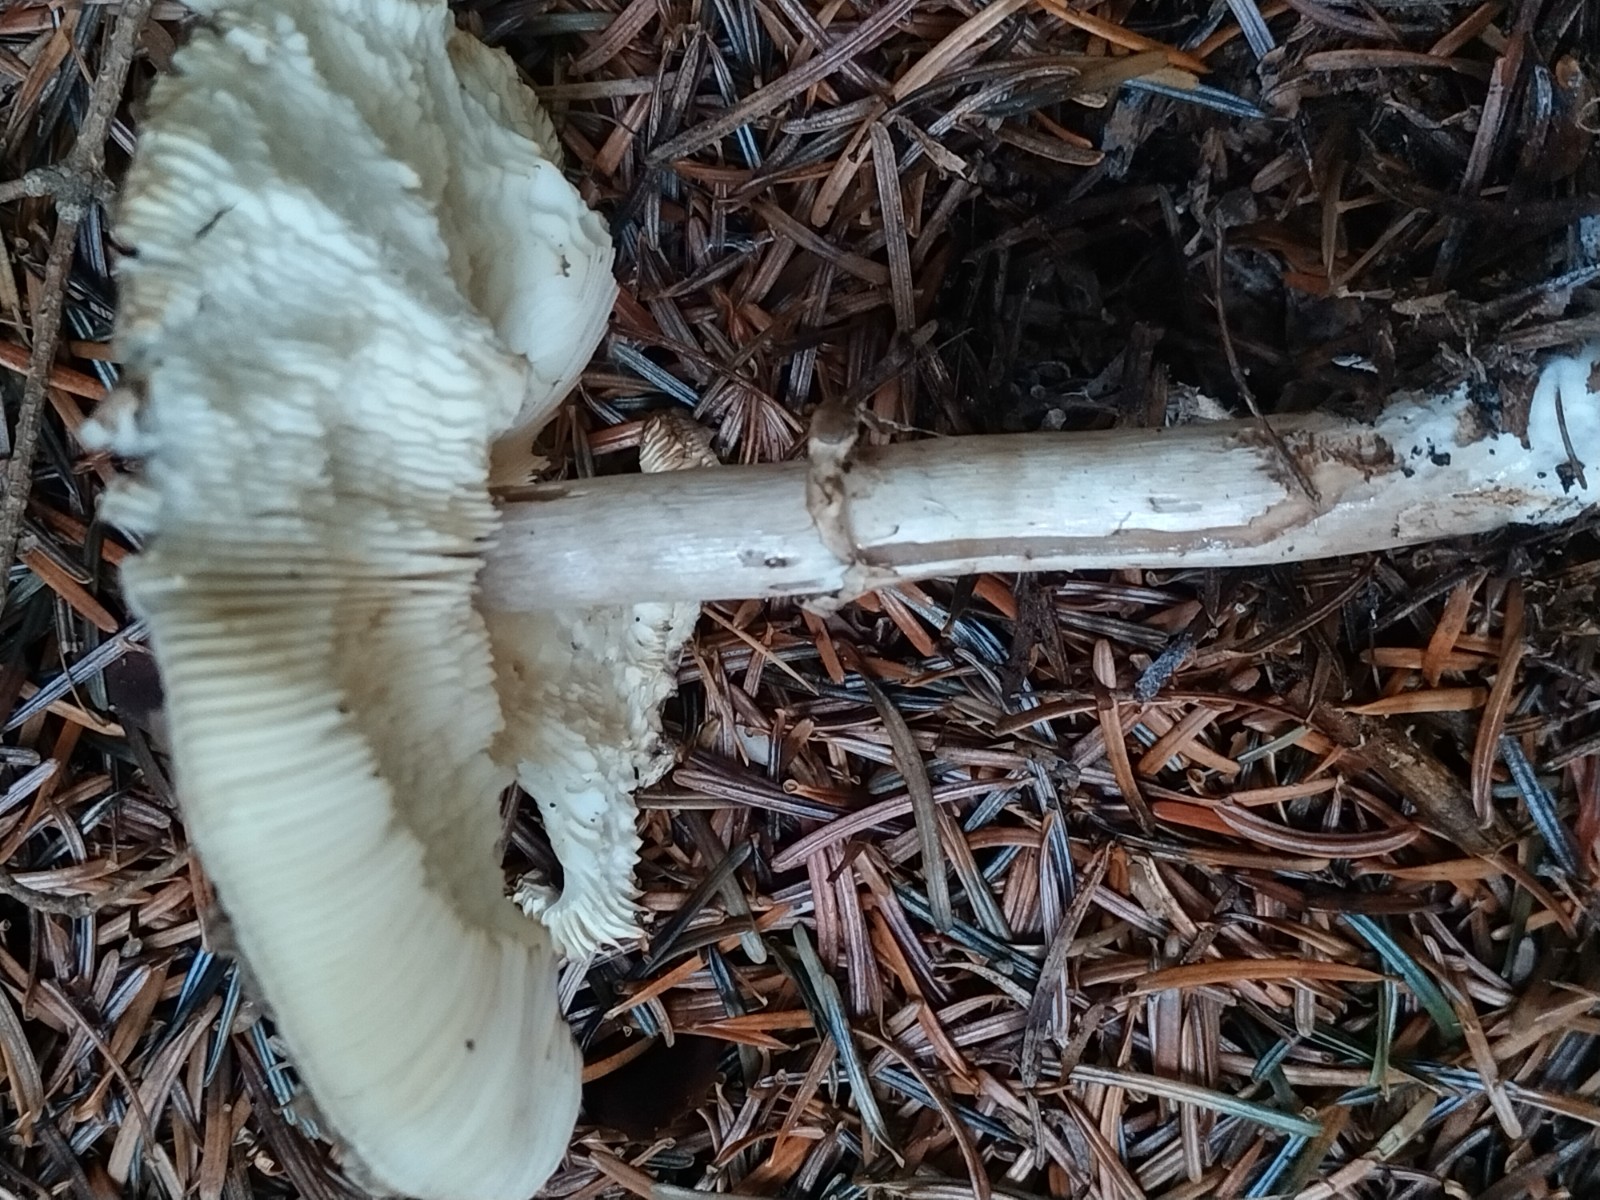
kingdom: Fungi
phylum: Basidiomycota
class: Agaricomycetes
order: Agaricales
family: Agaricaceae
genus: Chlorophyllum
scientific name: Chlorophyllum
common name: rabarberhat
